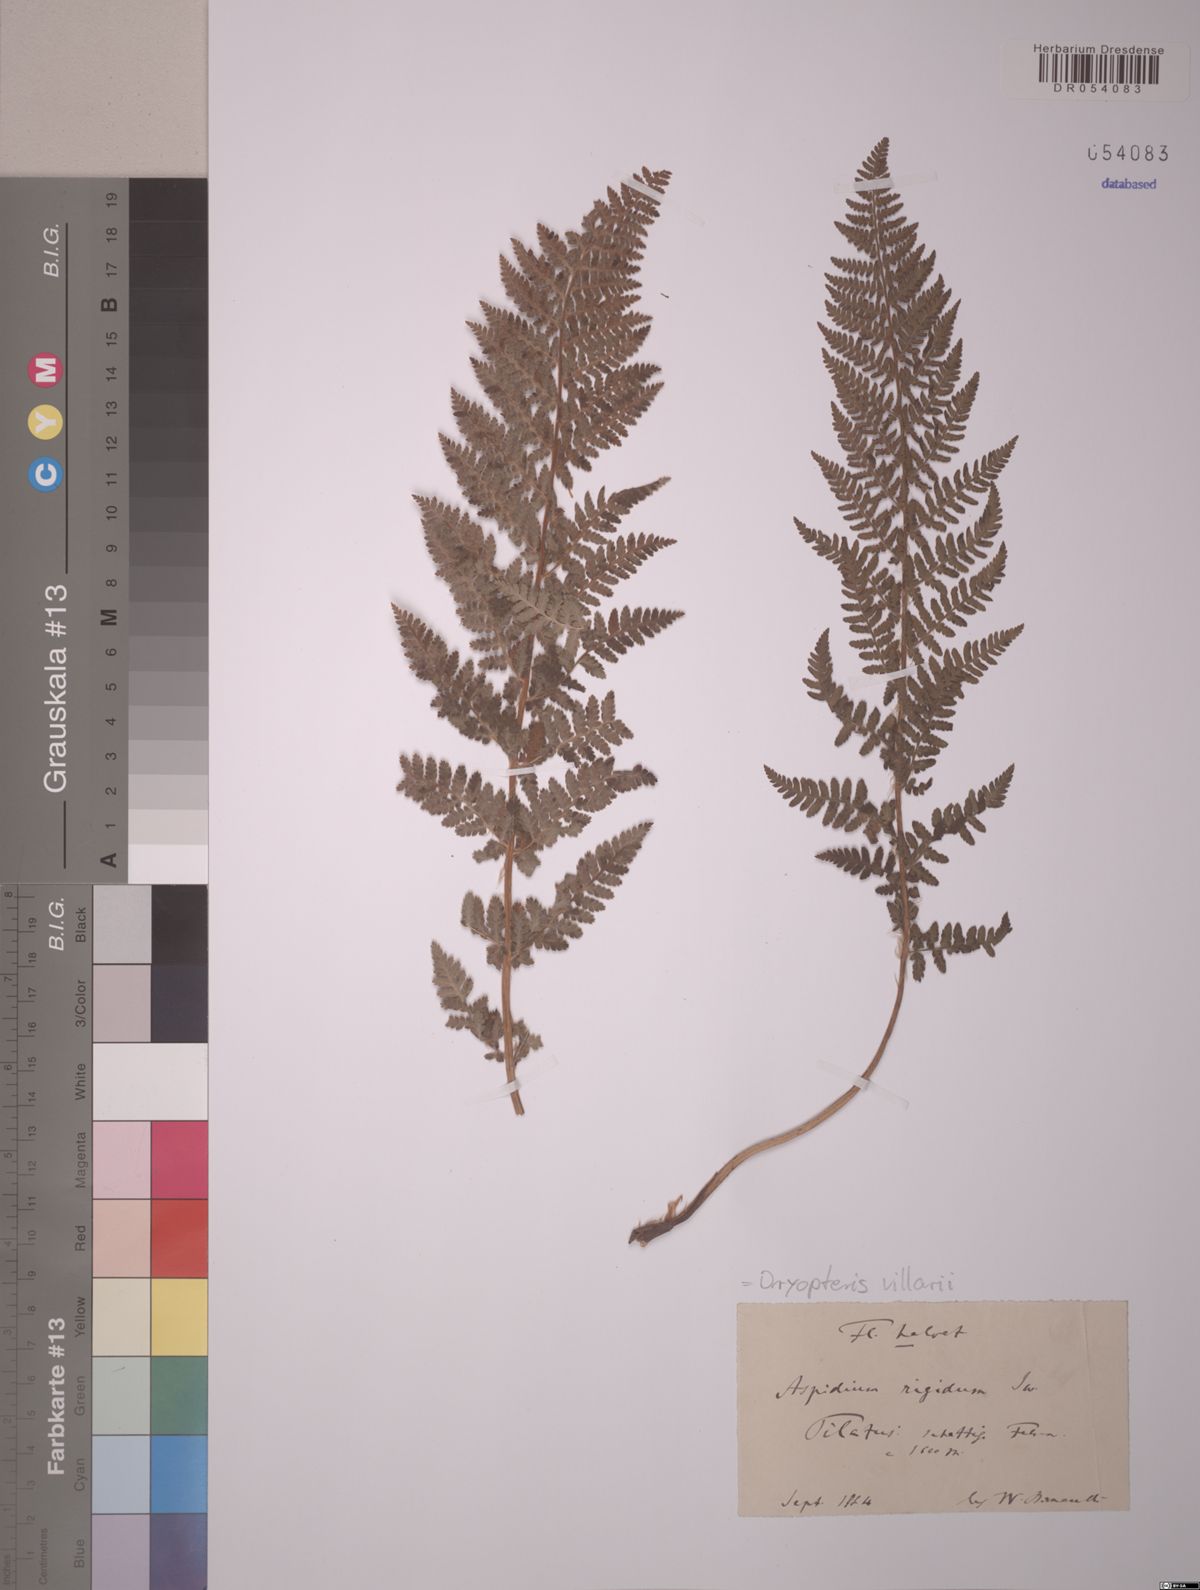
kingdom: Plantae
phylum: Tracheophyta
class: Polypodiopsida
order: Polypodiales
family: Dryopteridaceae
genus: Dryopteris
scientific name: Dryopteris villarii
